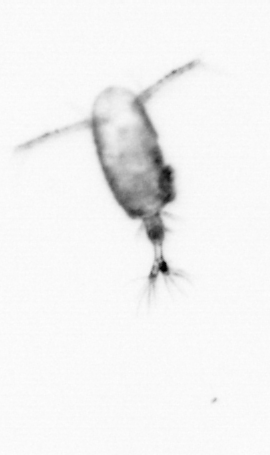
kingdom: Animalia
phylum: Arthropoda
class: Copepoda
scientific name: Copepoda
